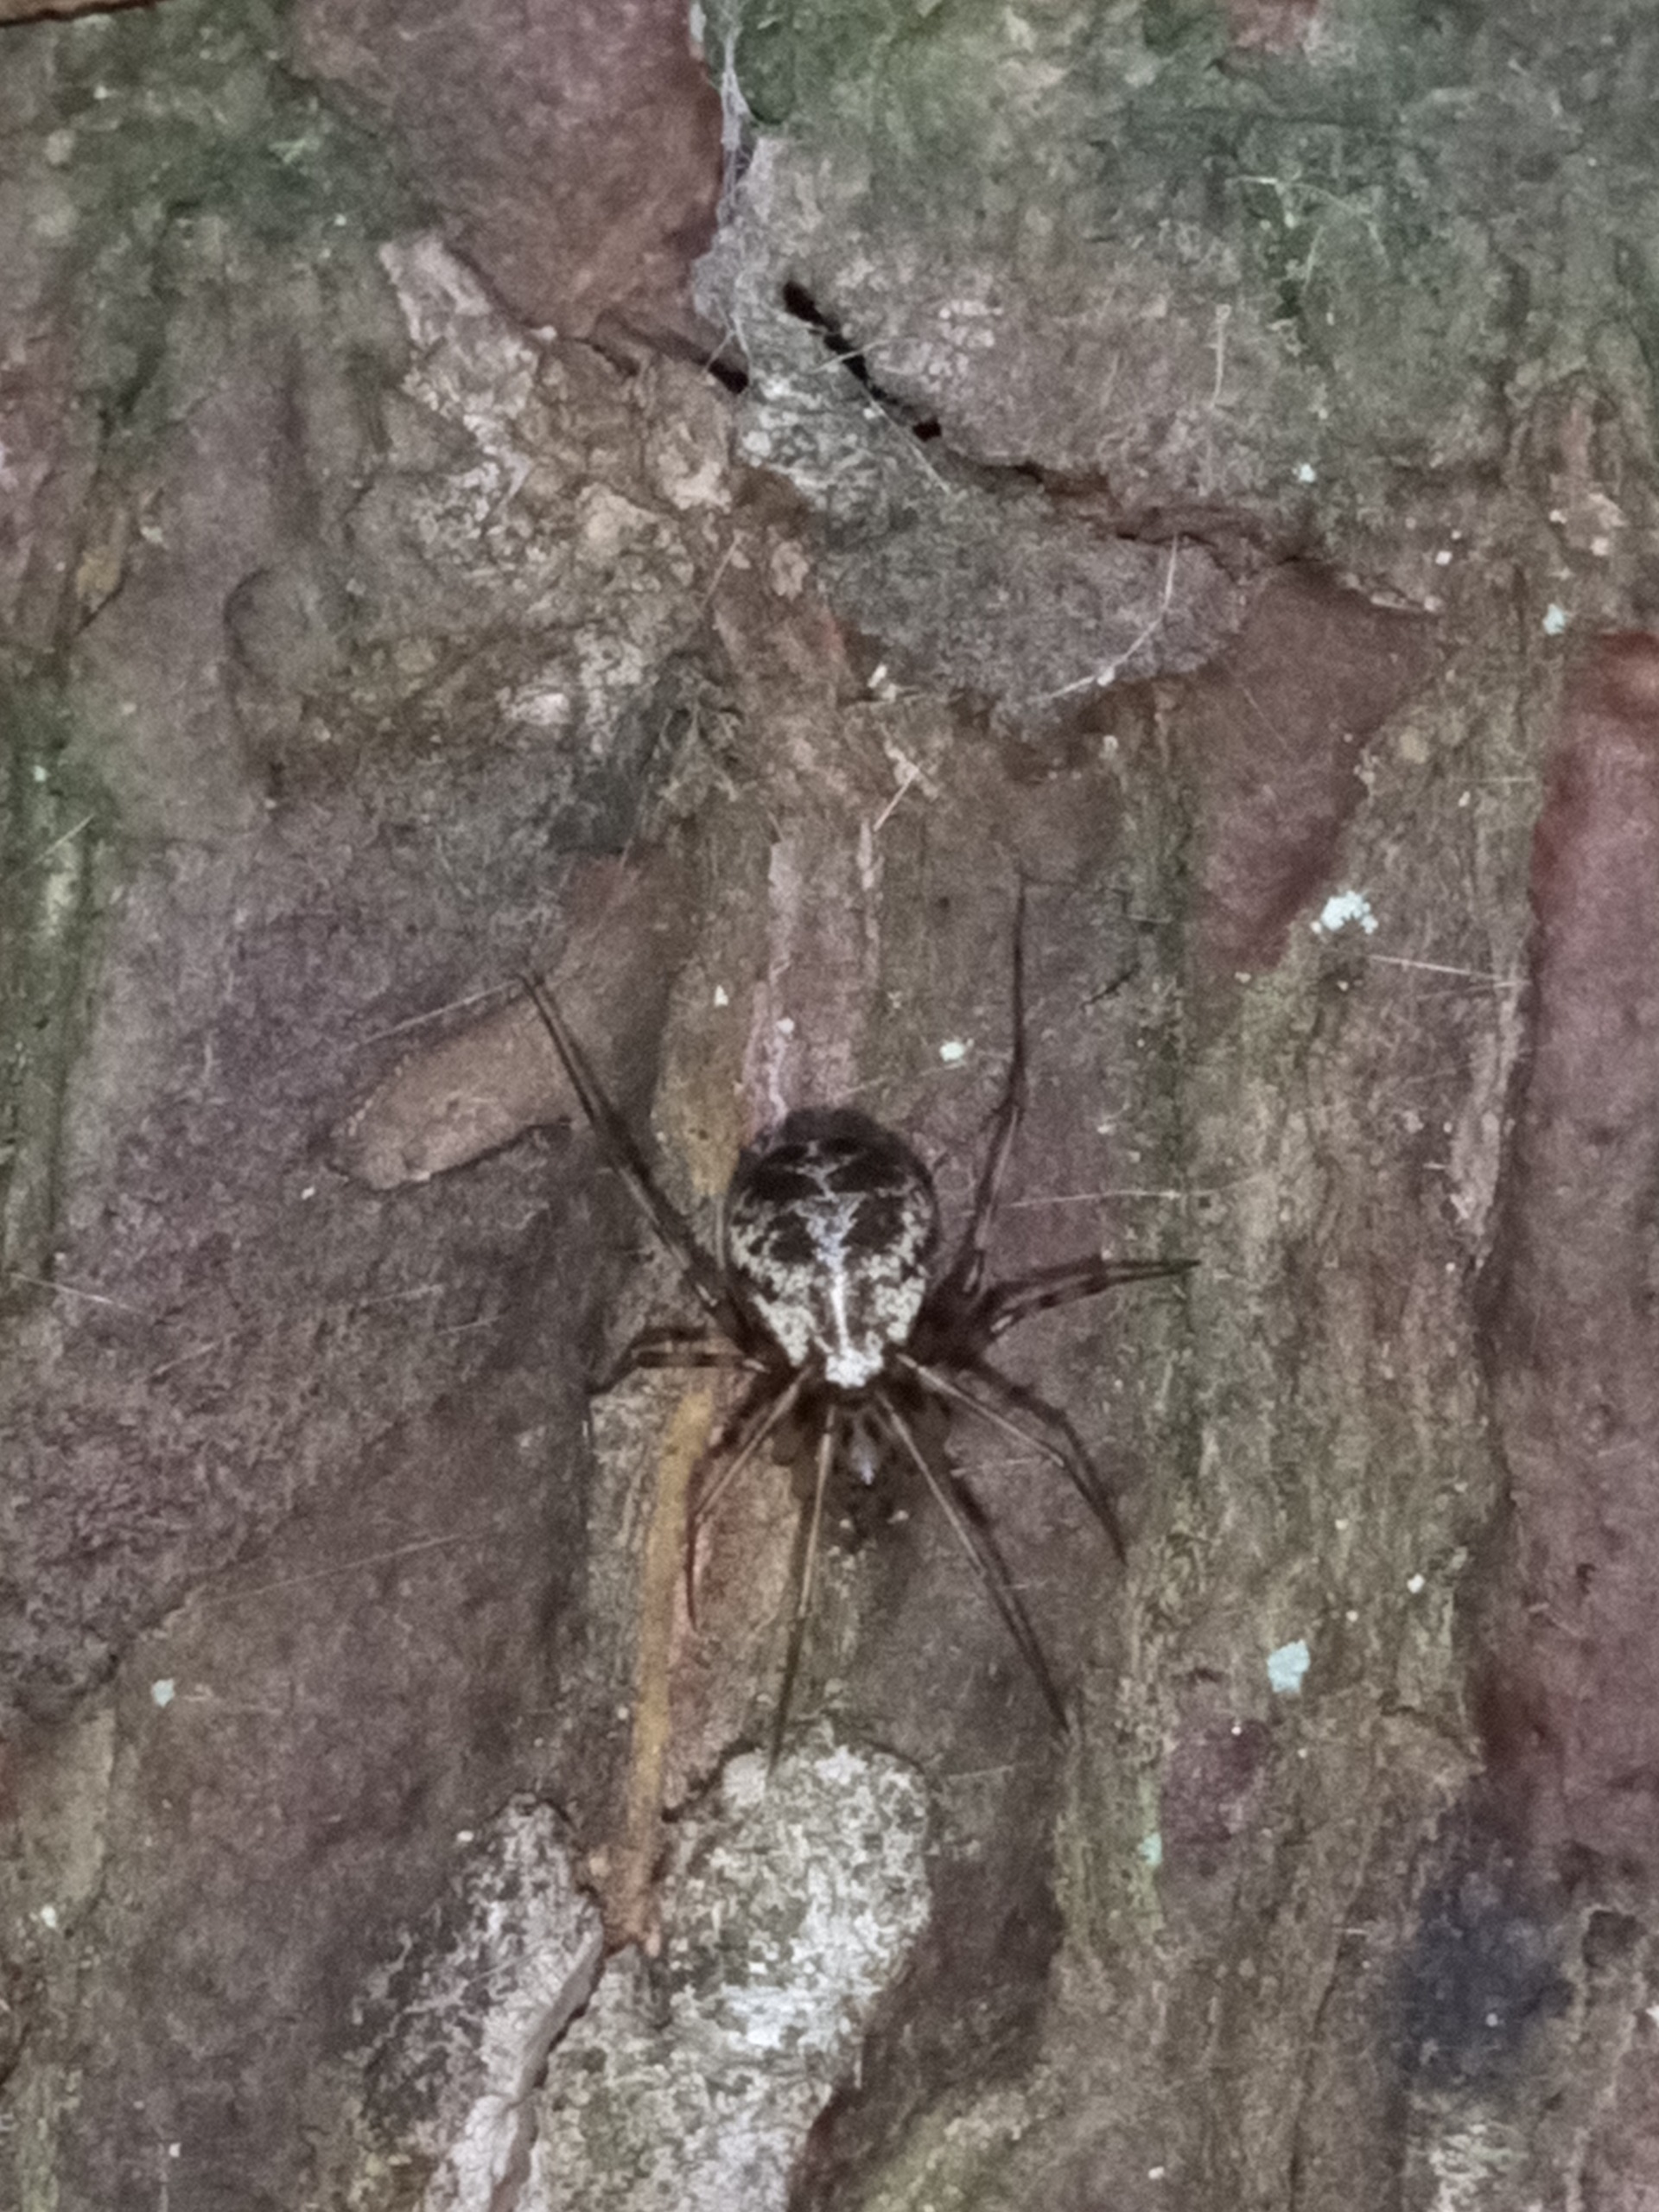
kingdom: Animalia
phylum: Arthropoda
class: Arachnida
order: Araneae
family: Linyphiidae
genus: Drapetisca
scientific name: Drapetisca socialis
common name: Barkjæger
